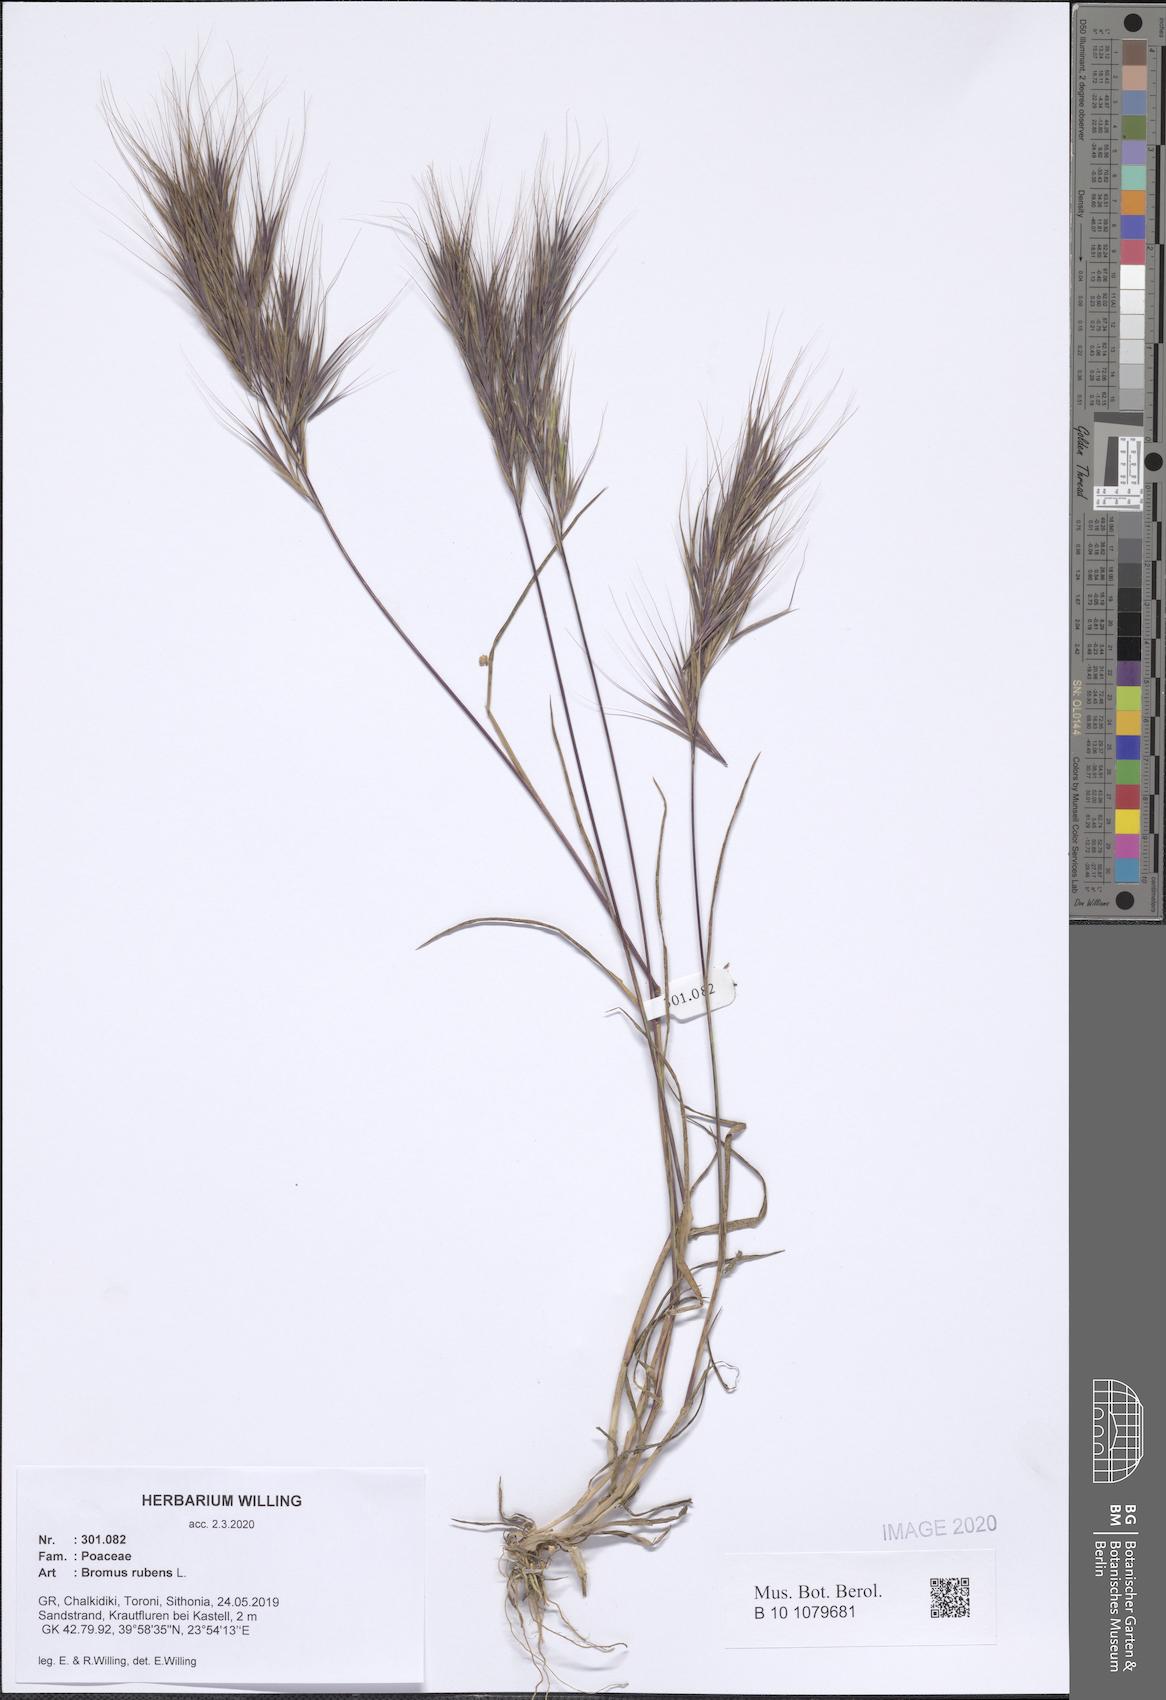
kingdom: Plantae
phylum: Tracheophyta
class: Liliopsida
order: Poales
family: Poaceae
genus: Bromus
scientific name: Bromus rubens
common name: Red brome
